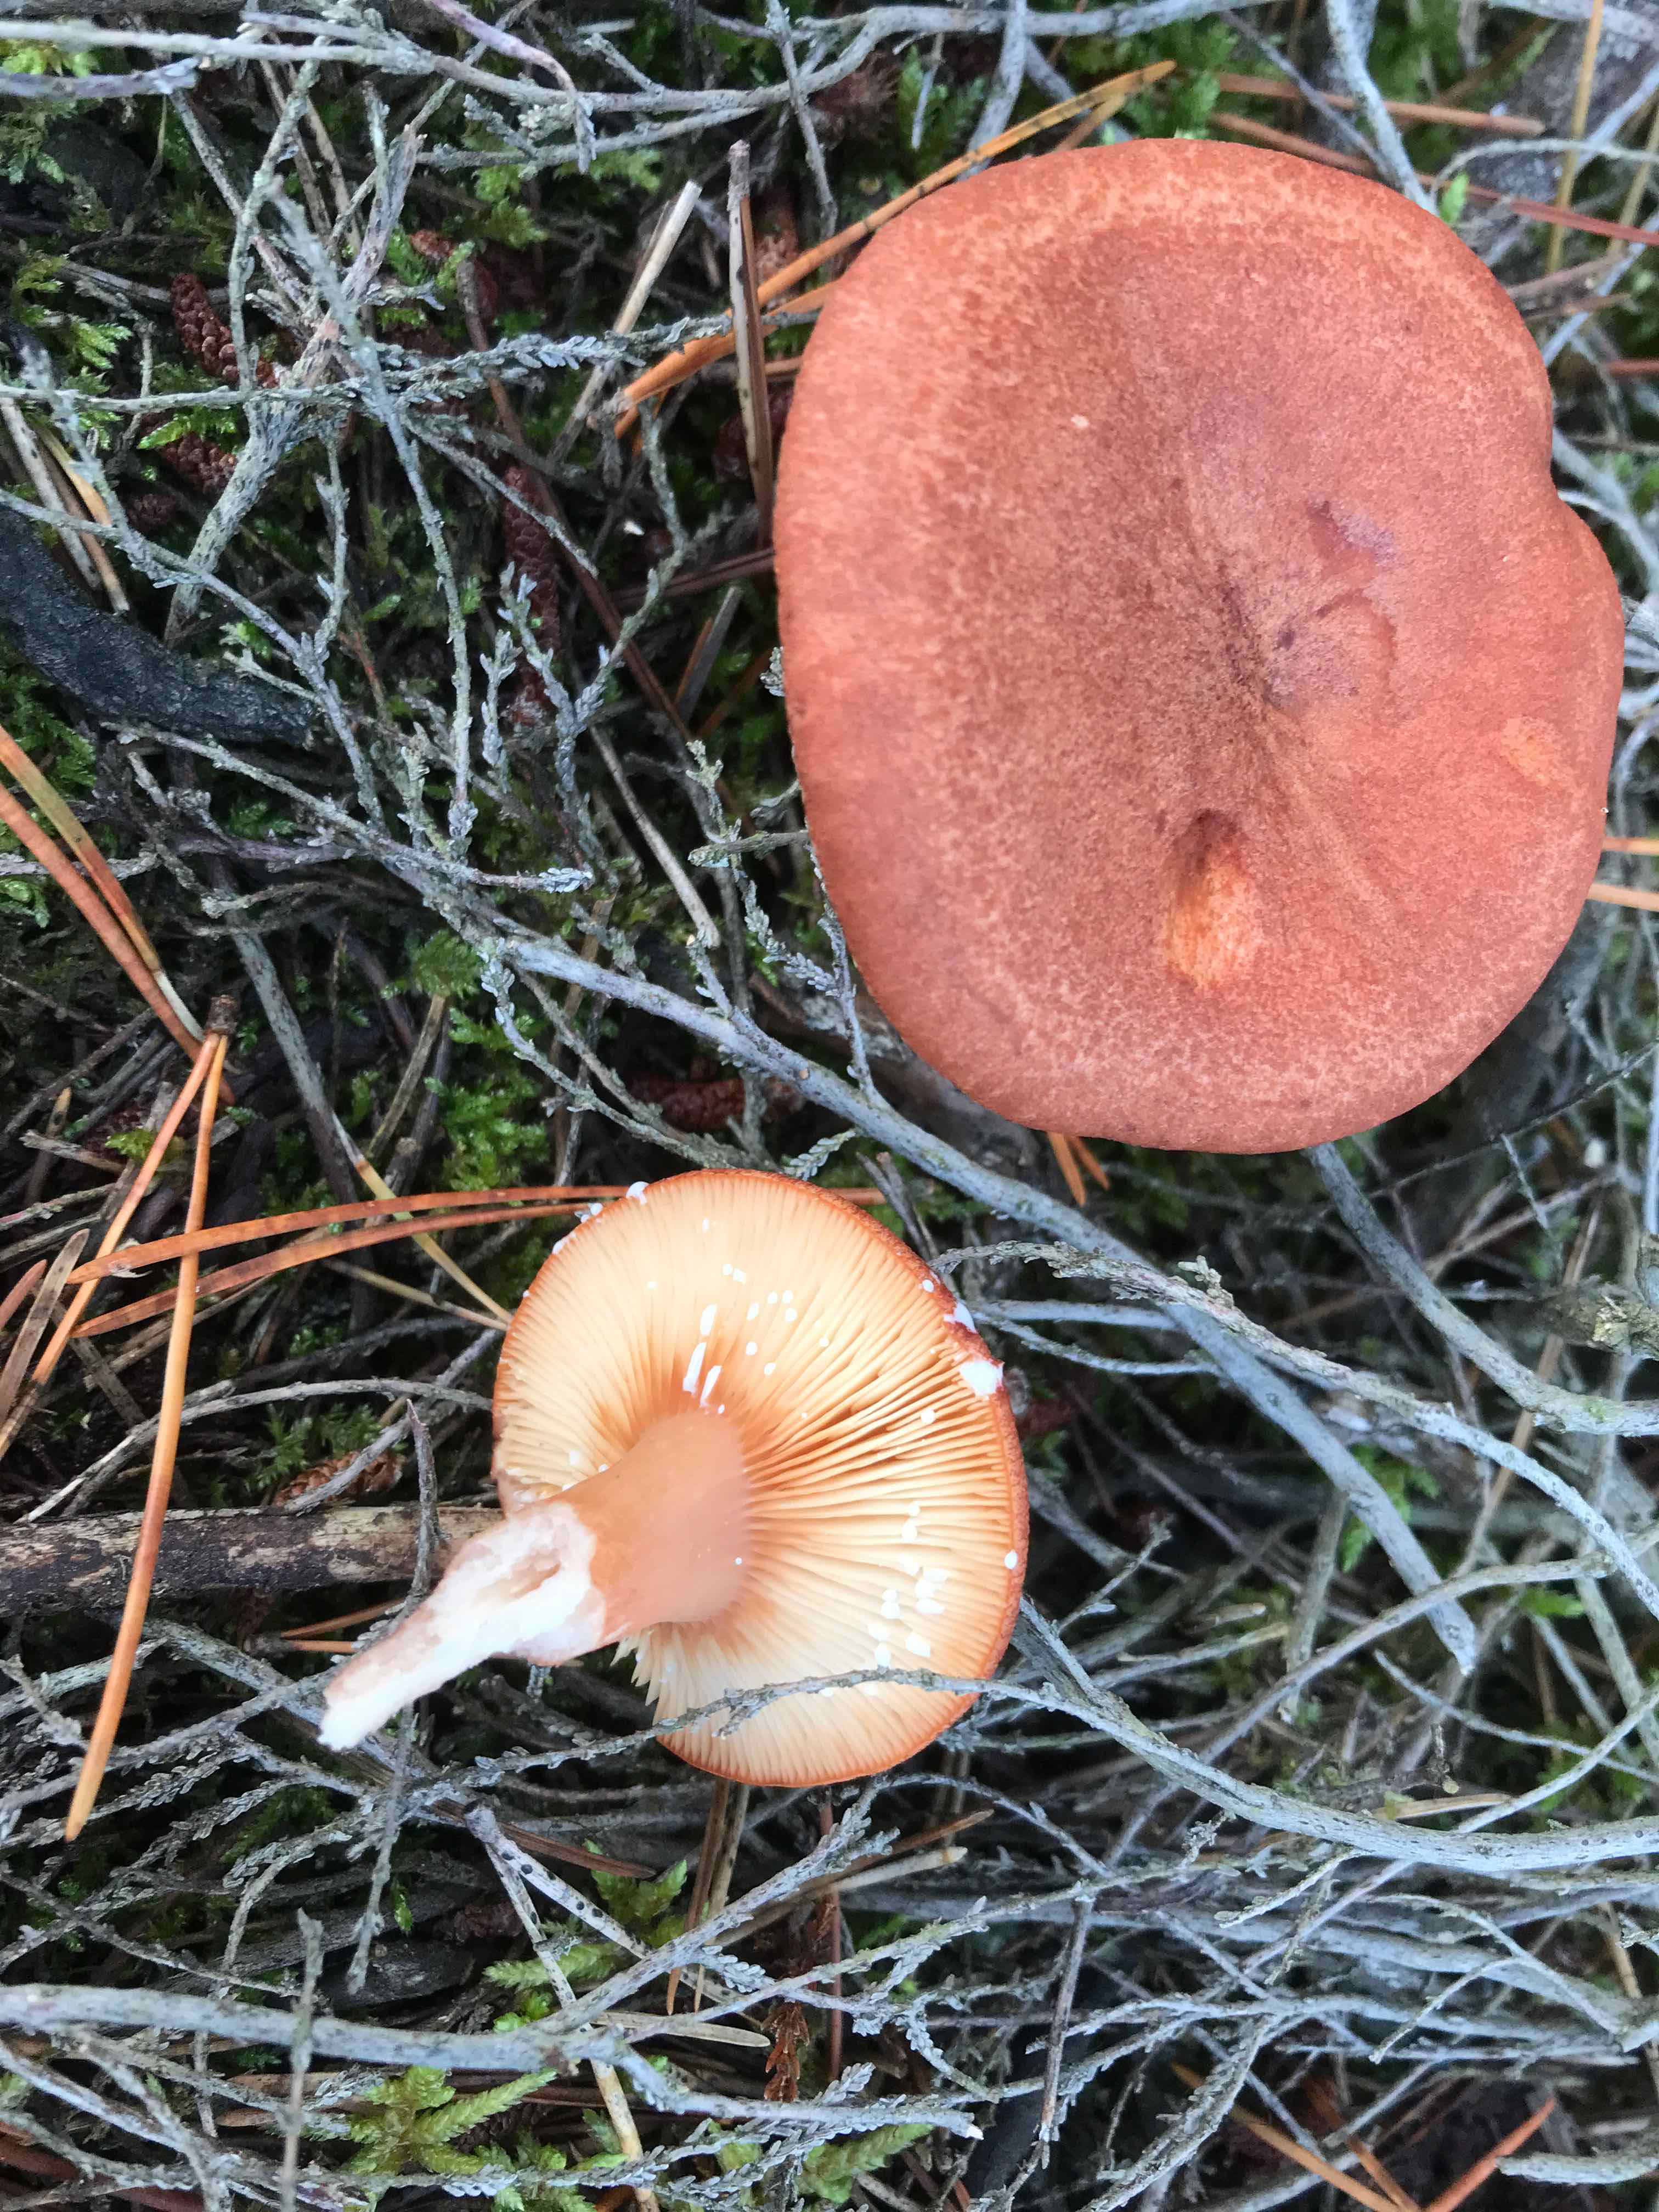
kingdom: Fungi
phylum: Basidiomycota
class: Agaricomycetes
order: Russulales
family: Russulaceae
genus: Lactarius
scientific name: Lactarius rufus
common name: rødbrun mælkehat
